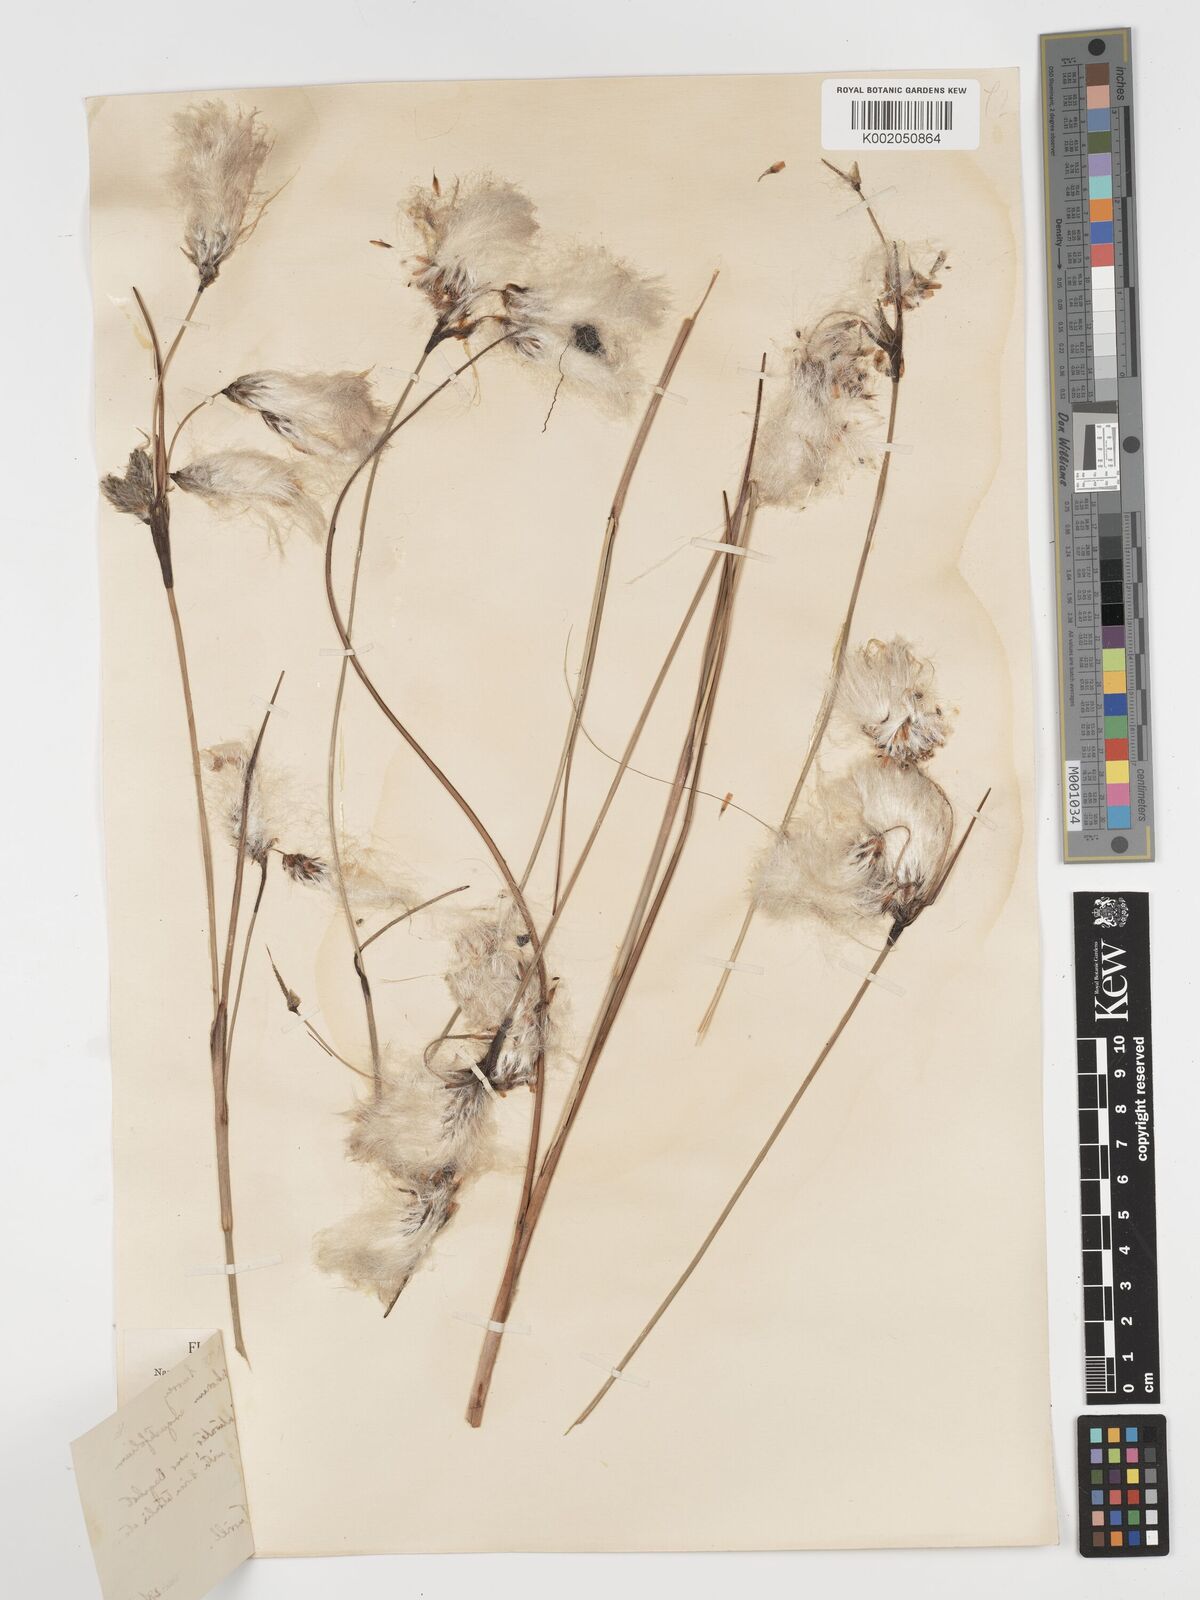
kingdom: Plantae
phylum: Tracheophyta
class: Liliopsida
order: Poales
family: Cyperaceae
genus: Eriophorum
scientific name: Eriophorum angustifolium
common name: Common cottongrass
